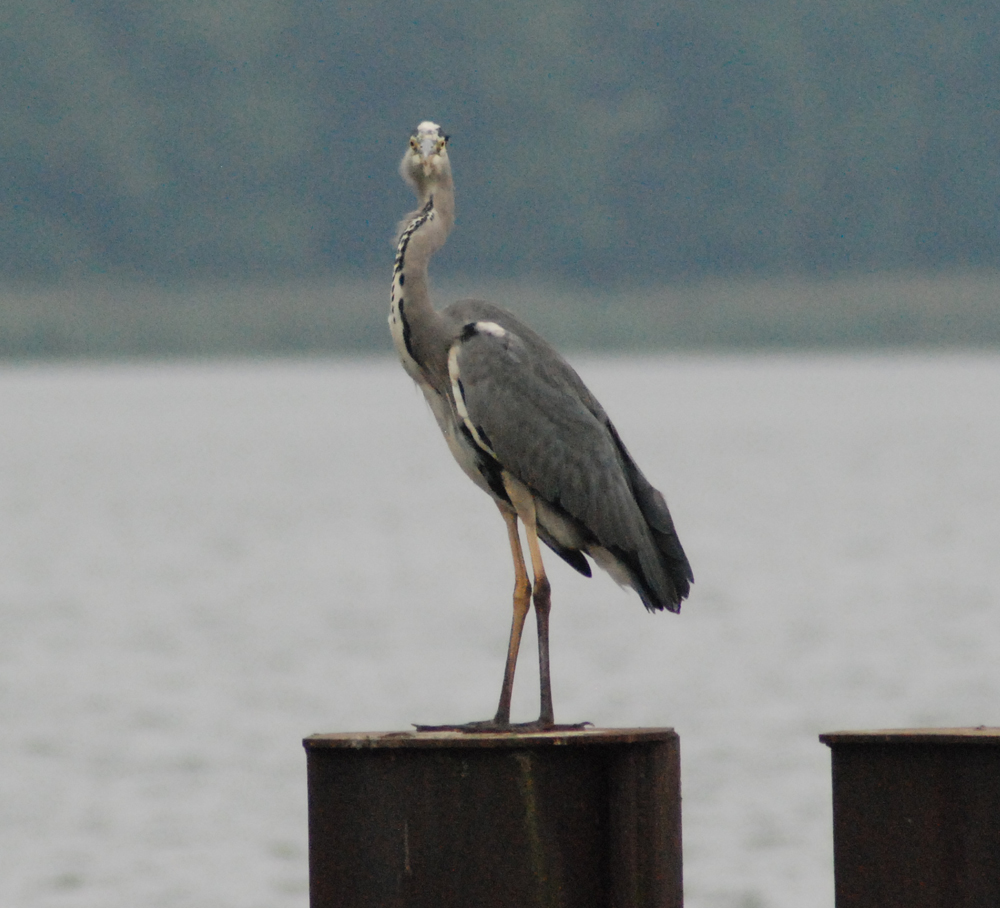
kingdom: Animalia
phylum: Chordata
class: Aves
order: Pelecaniformes
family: Ardeidae
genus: Ardea
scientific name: Ardea cinerea
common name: Grey heron
